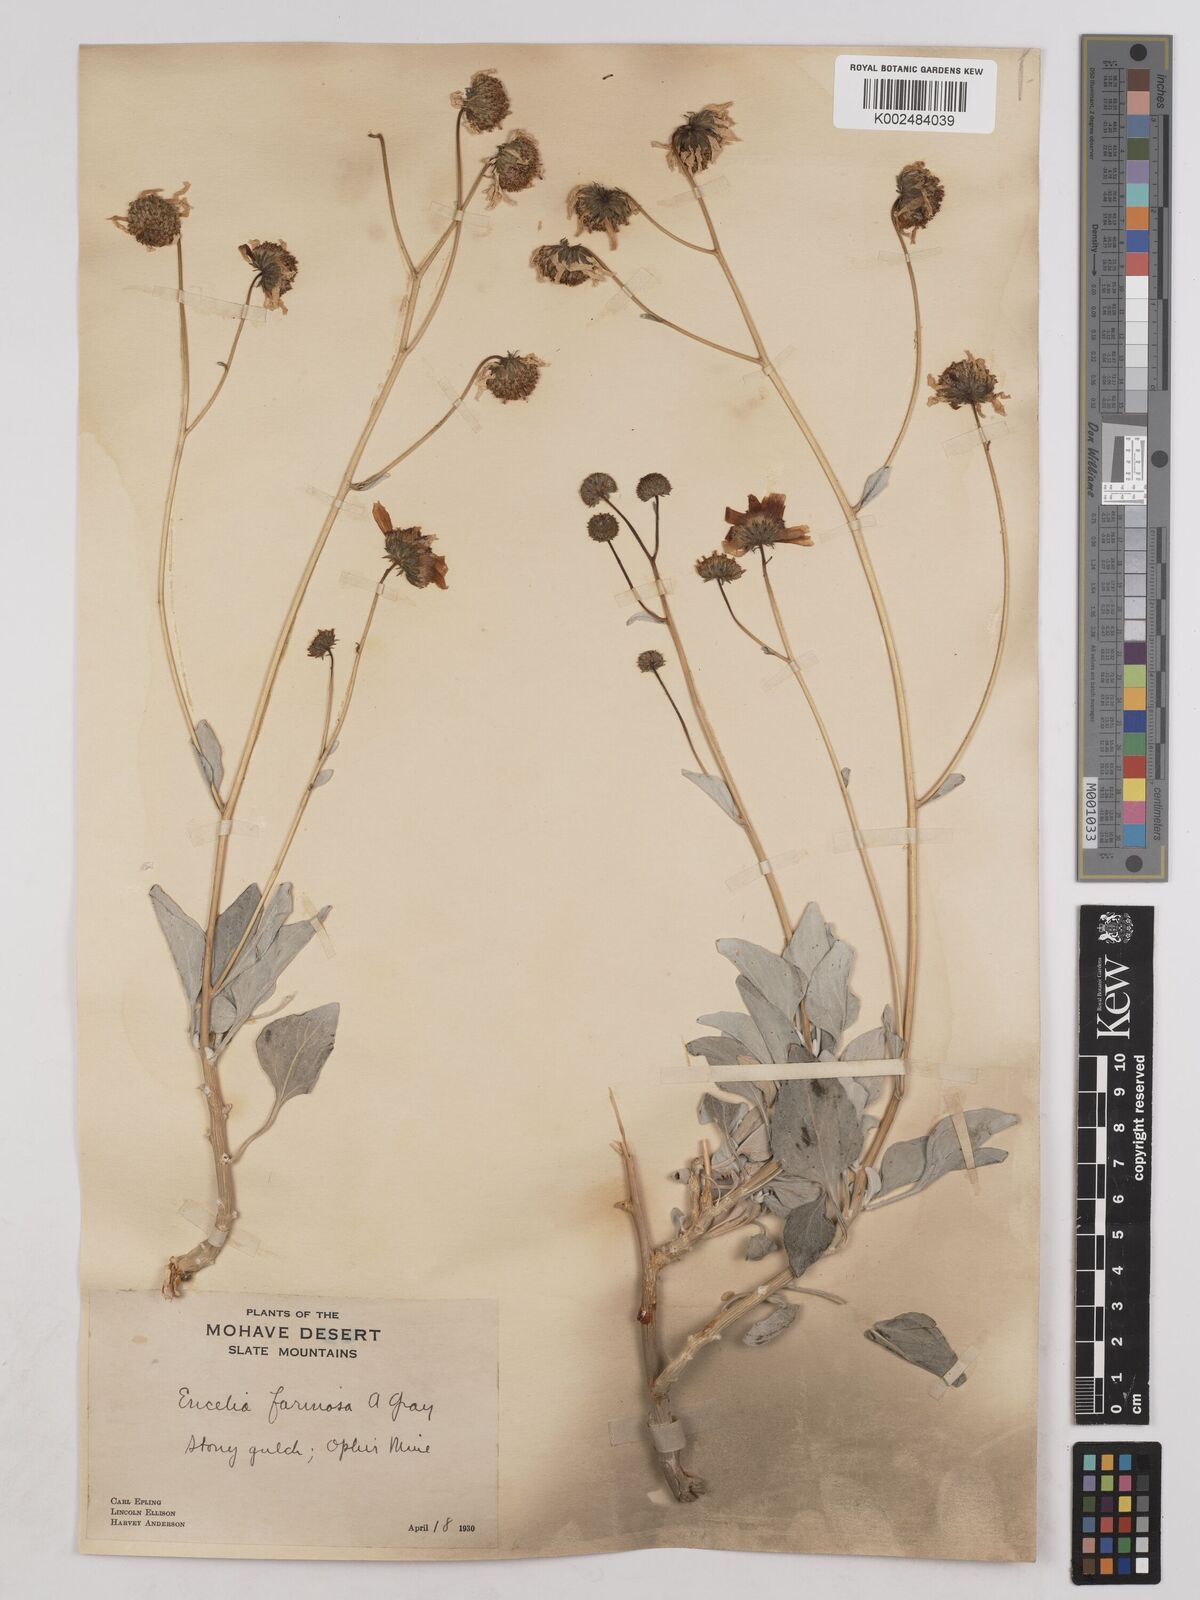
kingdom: Plantae
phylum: Tracheophyta
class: Magnoliopsida
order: Asterales
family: Asteraceae
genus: Encelia
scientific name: Encelia farinosa
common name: Brittlebush
